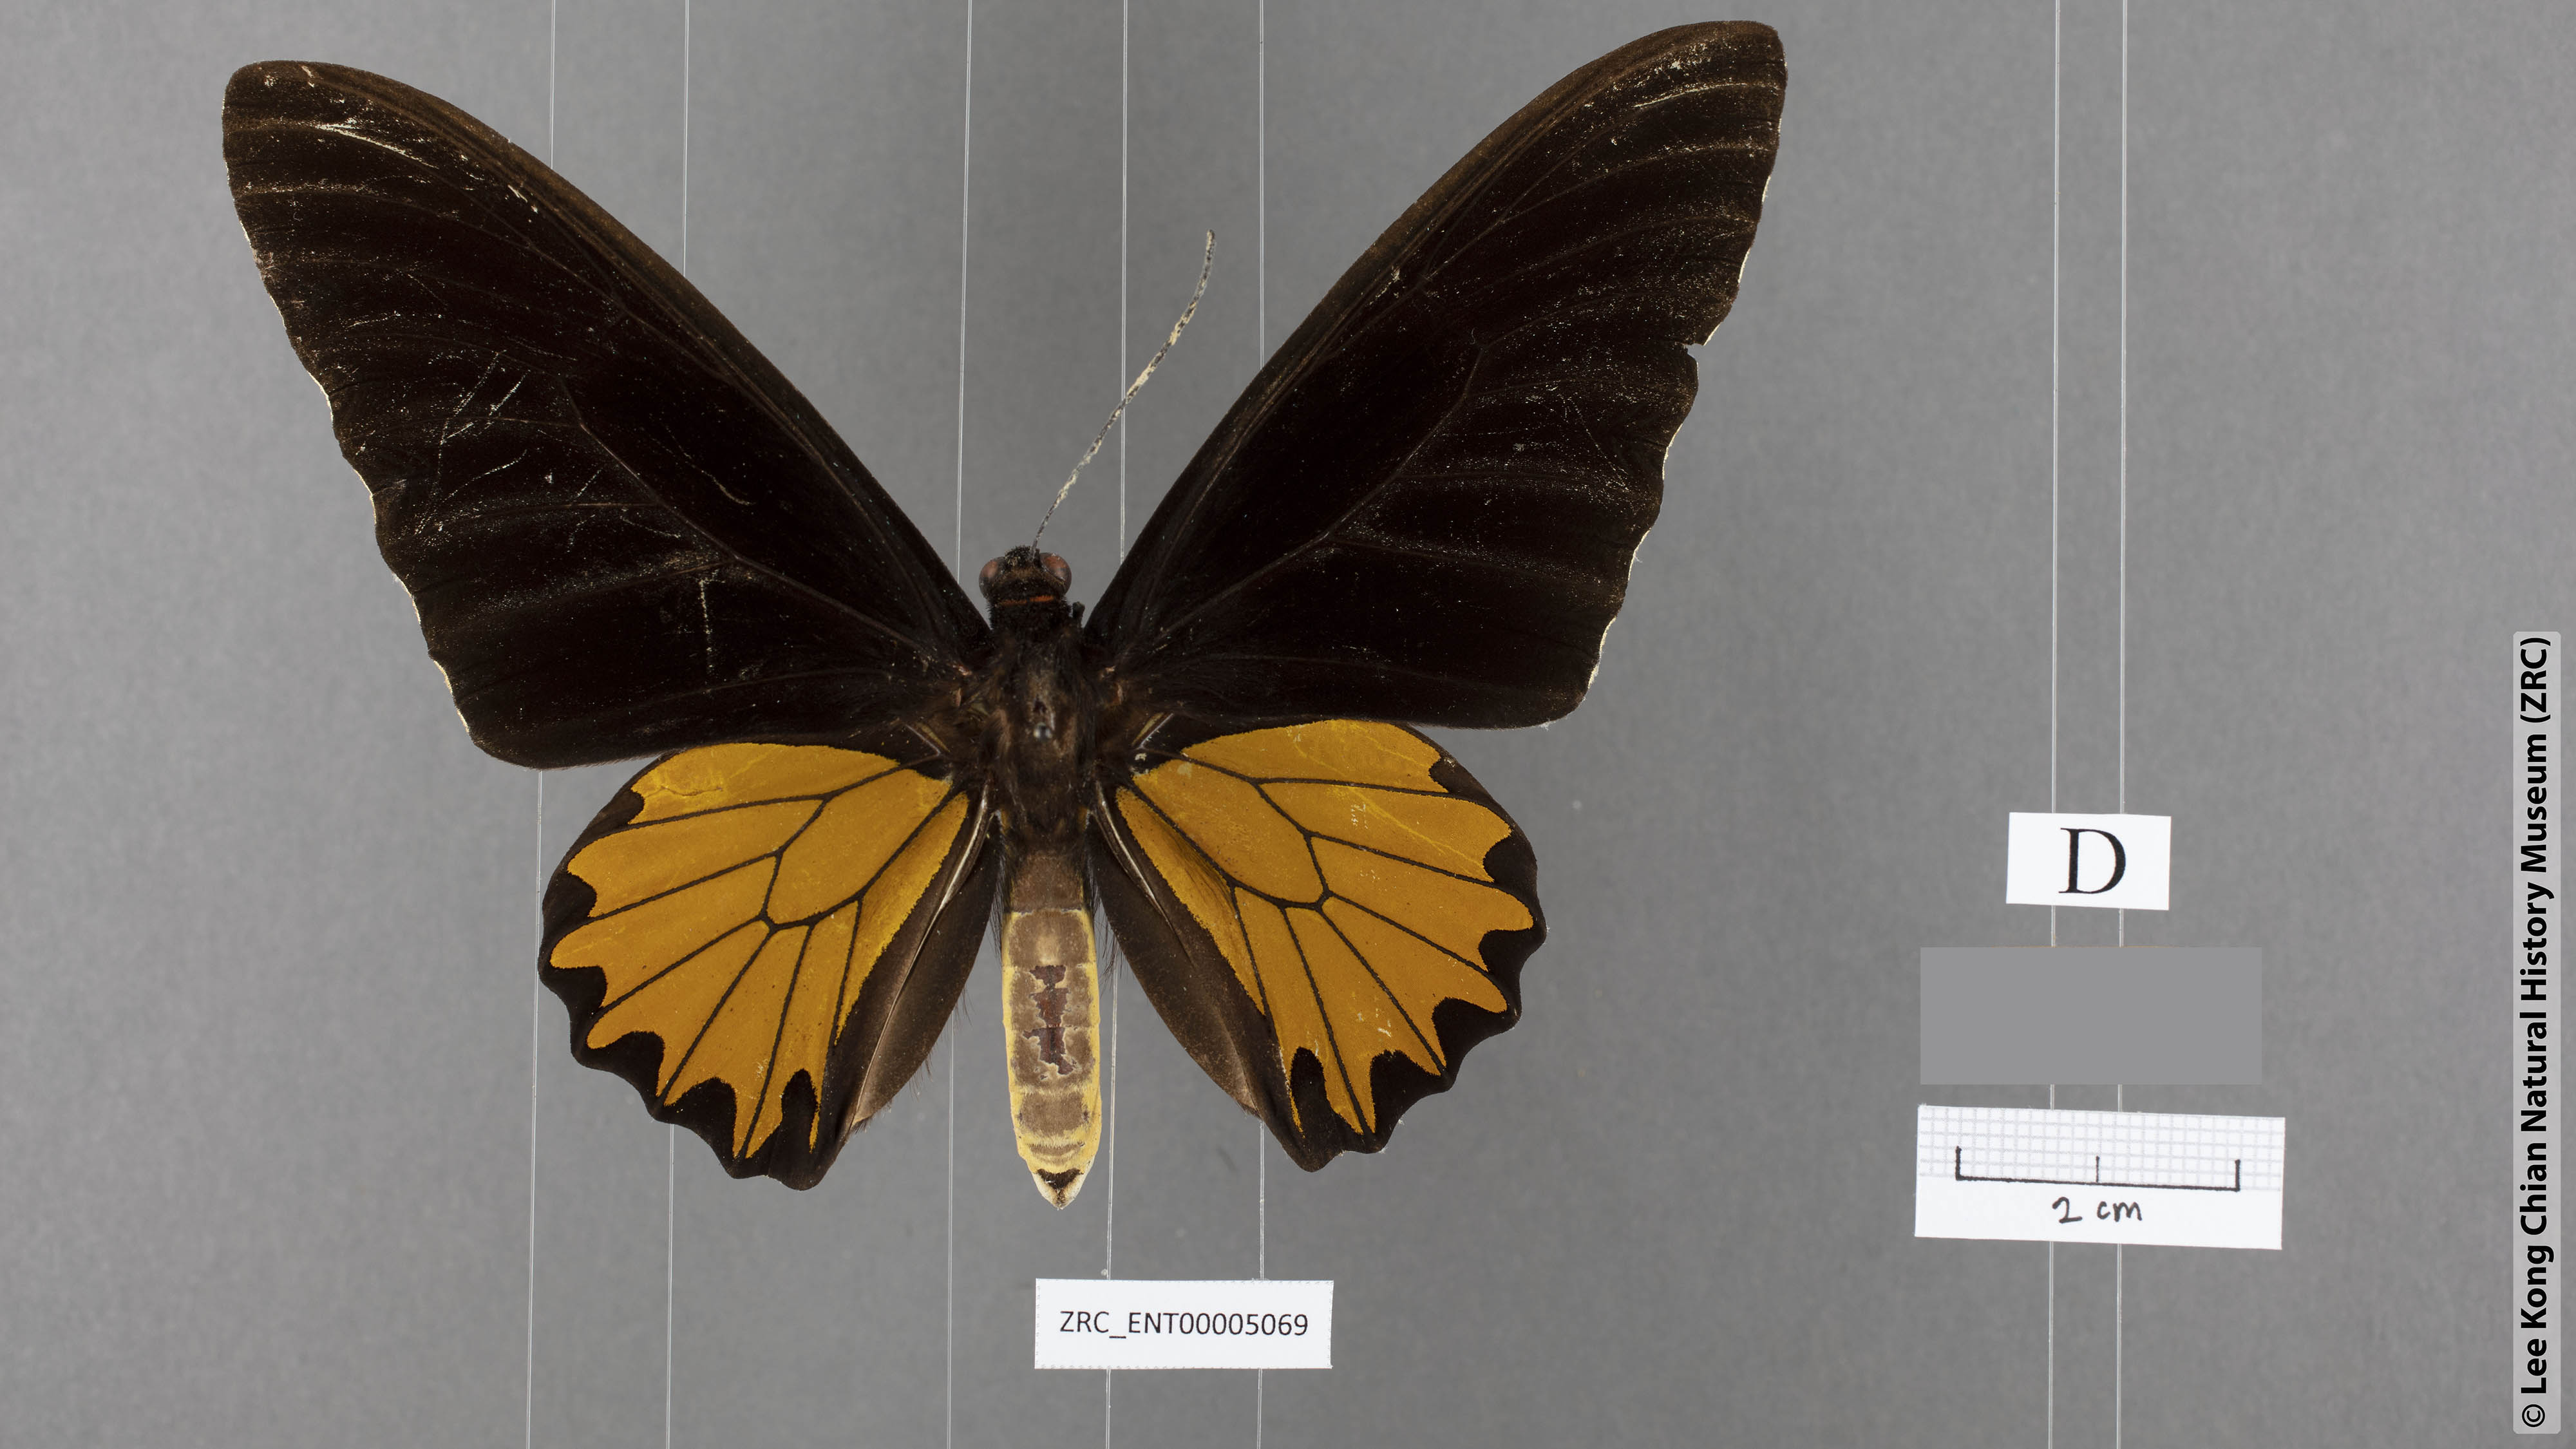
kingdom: Animalia
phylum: Arthropoda
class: Insecta
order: Lepidoptera
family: Papilionidae
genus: Troides
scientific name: Troides helena
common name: Common birdwing
